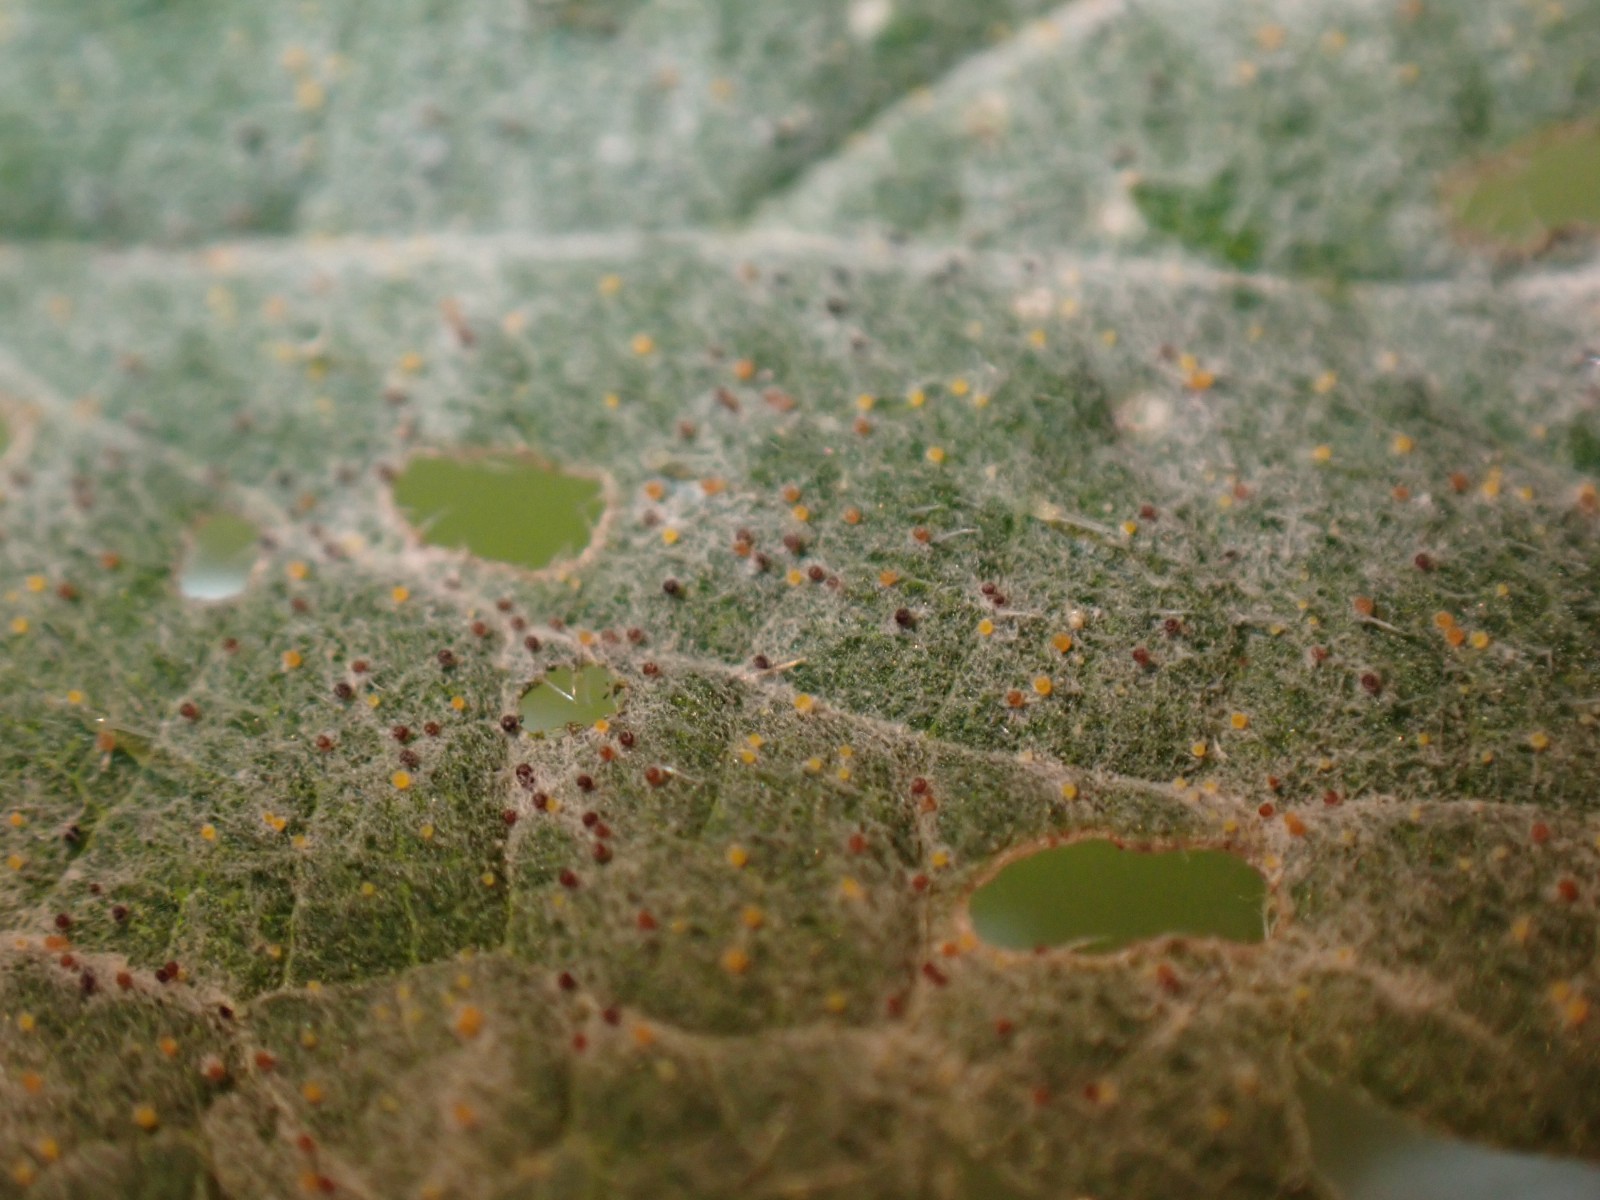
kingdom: Fungi
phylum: Ascomycota
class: Leotiomycetes
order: Helotiales
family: Erysiphaceae
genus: Erysiphe
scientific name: Erysiphe urticae
